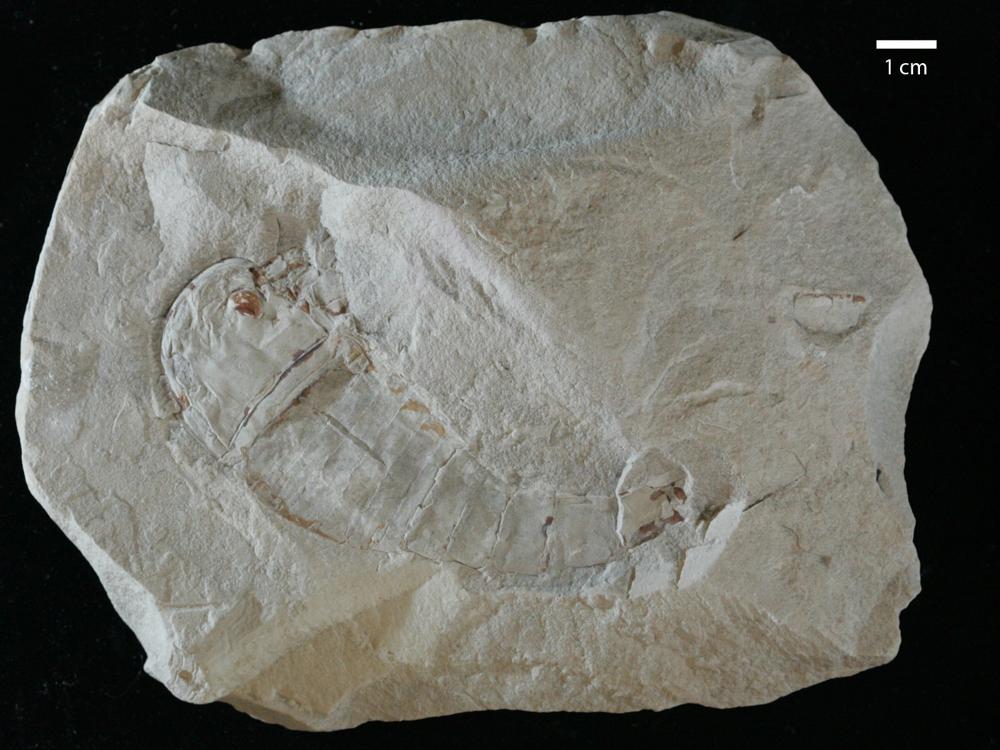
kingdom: Animalia
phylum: Arthropoda
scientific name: Arthropoda
